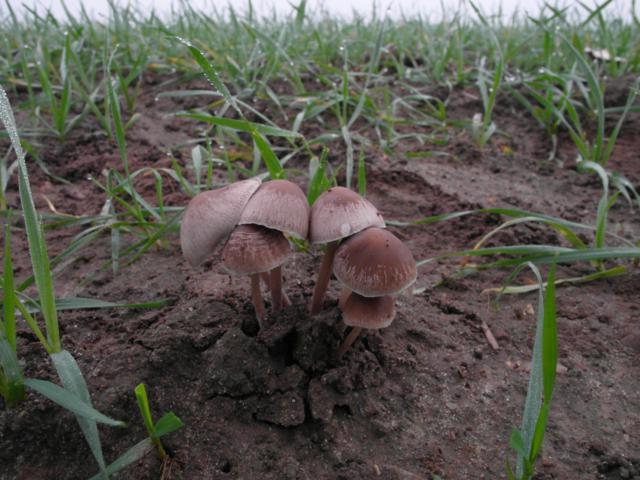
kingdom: Fungi
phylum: Basidiomycota
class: Agaricomycetes
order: Agaricales
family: Psathyrellaceae
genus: Psathyrella
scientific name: Psathyrella pseudogracilis
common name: slank mørkhat
